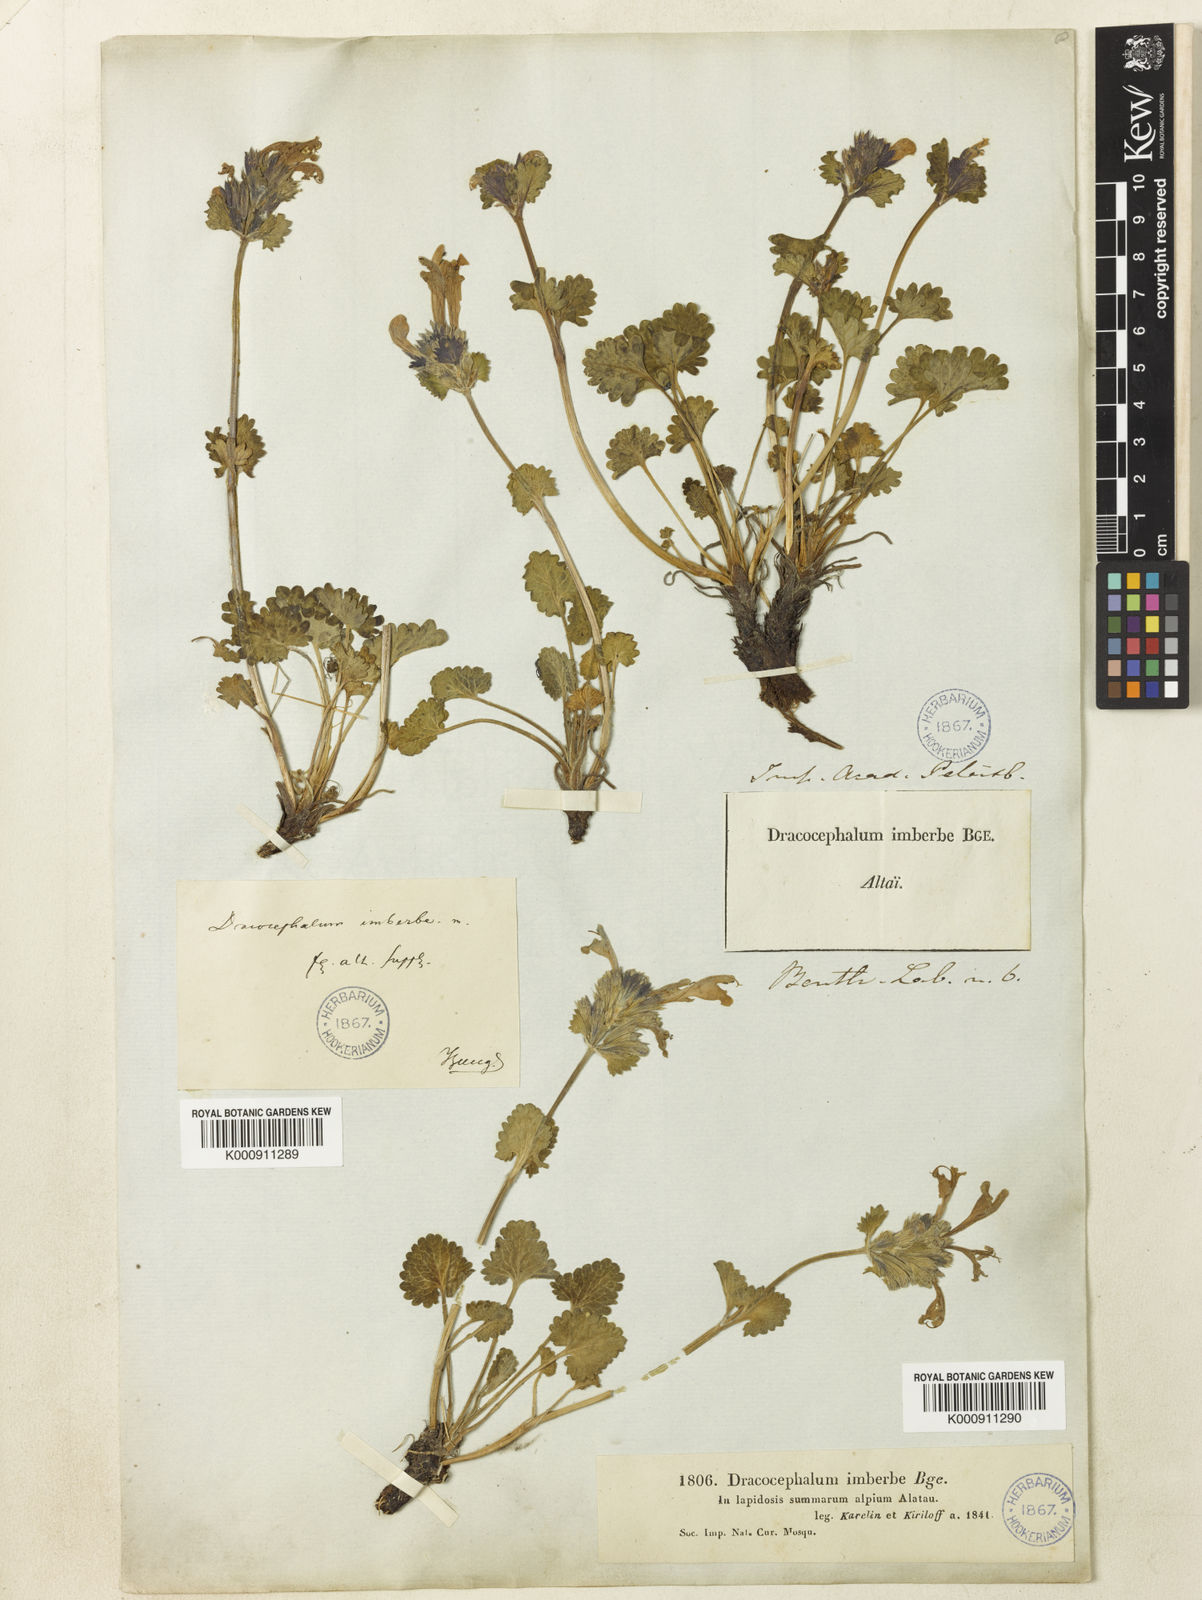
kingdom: Plantae
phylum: Tracheophyta
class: Magnoliopsida
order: Lamiales
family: Lamiaceae
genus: Dracocephalum
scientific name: Dracocephalum imberbe
